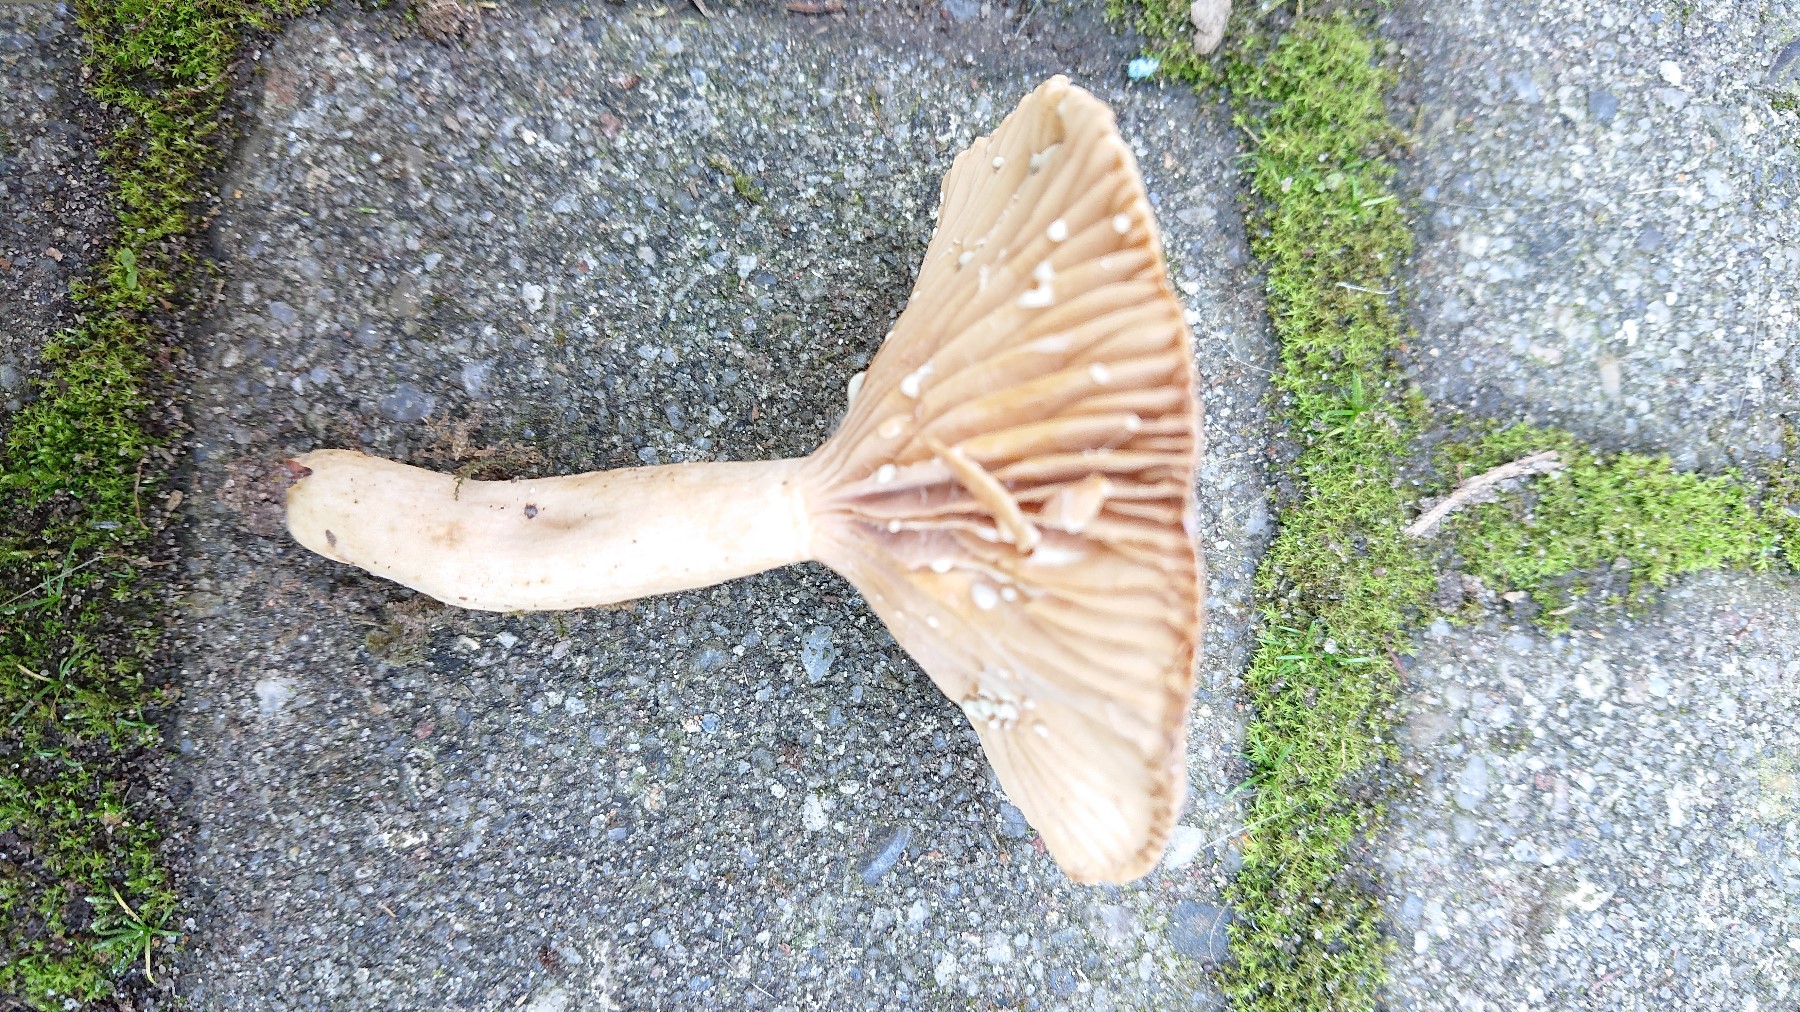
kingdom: Fungi
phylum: Basidiomycota
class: Agaricomycetes
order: Russulales
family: Russulaceae
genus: Lactarius
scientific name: Lactarius pyrogalus
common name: hassel-mælkehat
